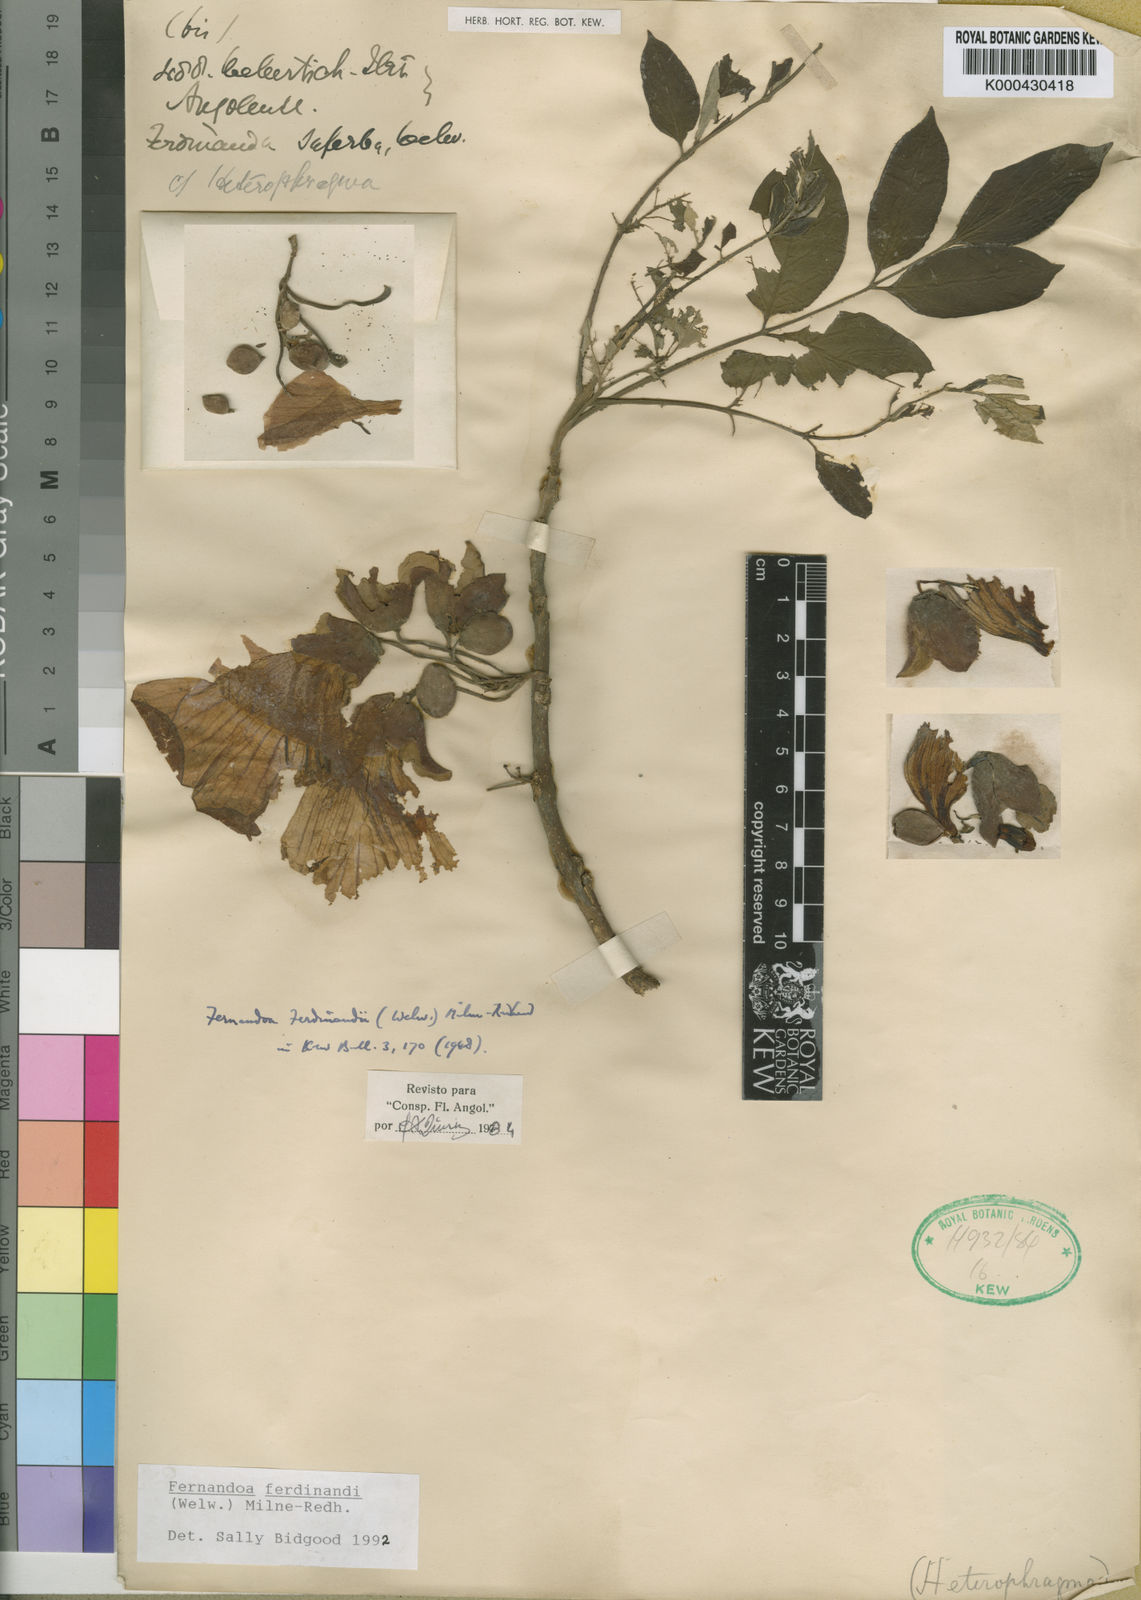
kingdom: Plantae
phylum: Tracheophyta
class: Magnoliopsida
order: Lamiales
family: Bignoniaceae
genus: Fernandoa
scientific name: Fernandoa
